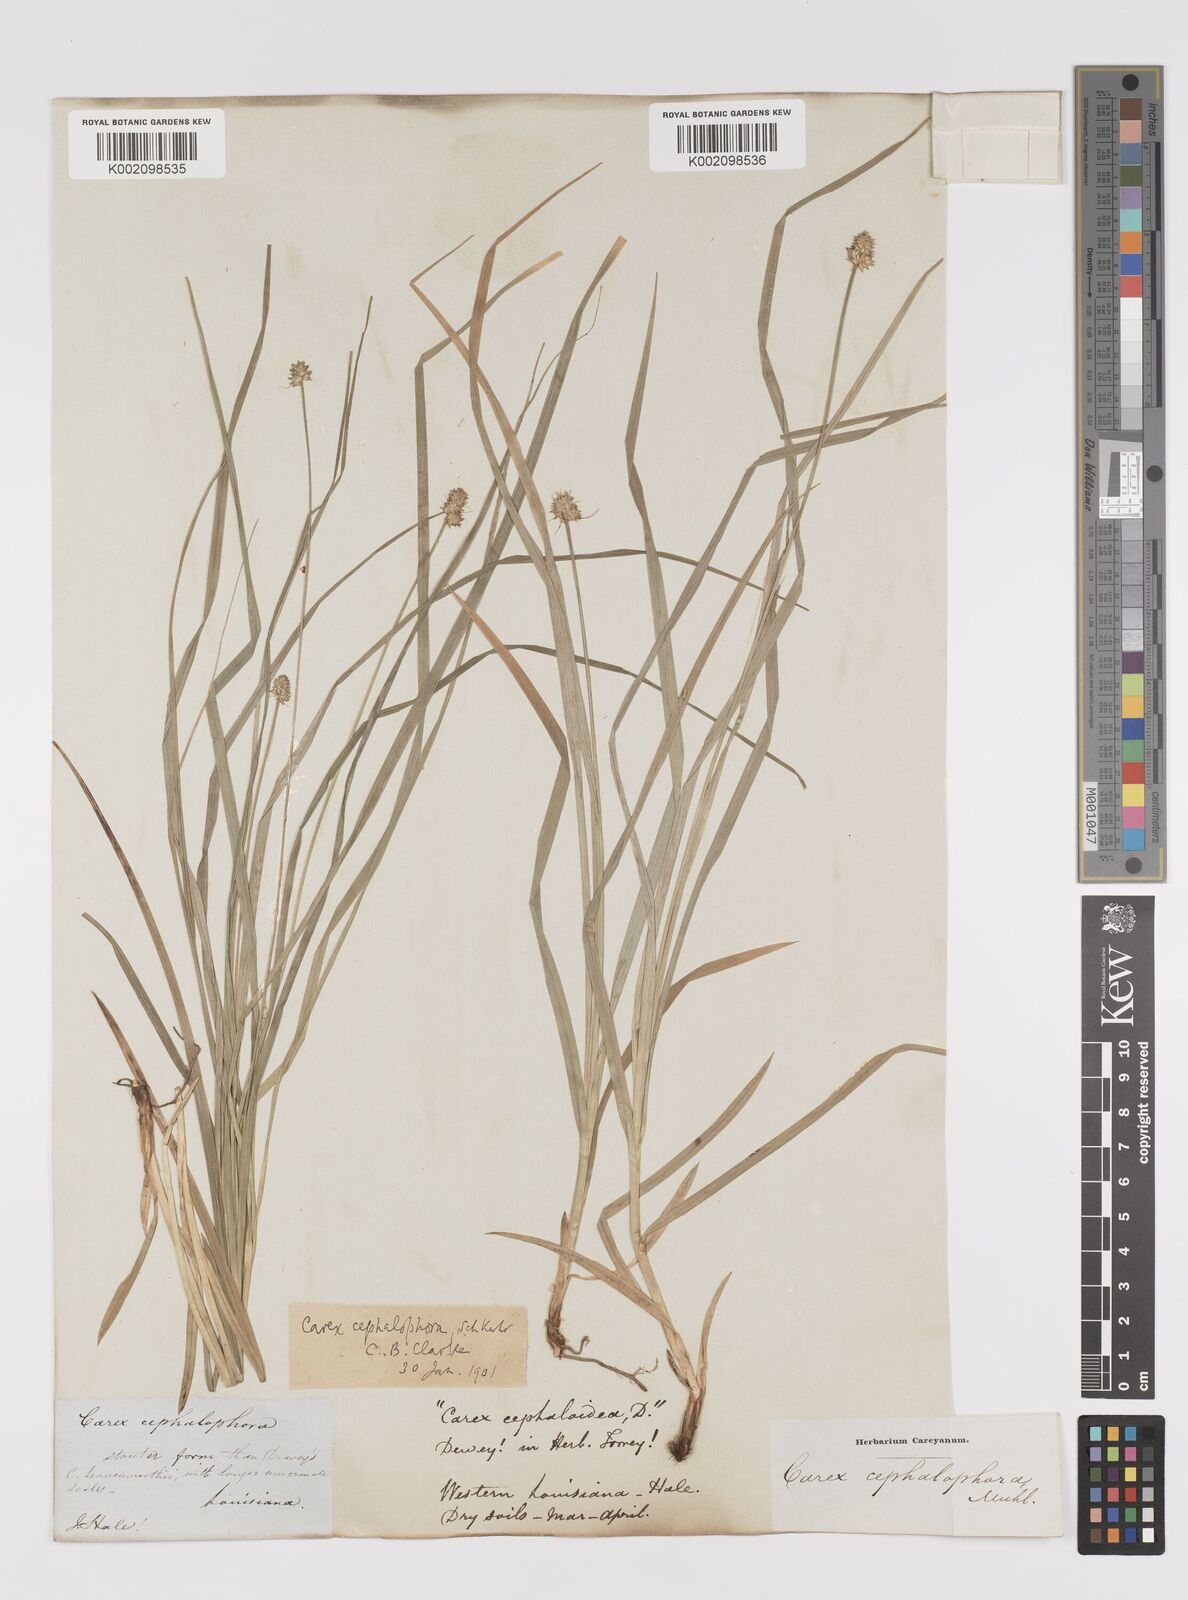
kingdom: Plantae
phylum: Tracheophyta
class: Liliopsida
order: Poales
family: Cyperaceae
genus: Carex
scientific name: Carex cephalophora
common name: Oval-headed sedge
